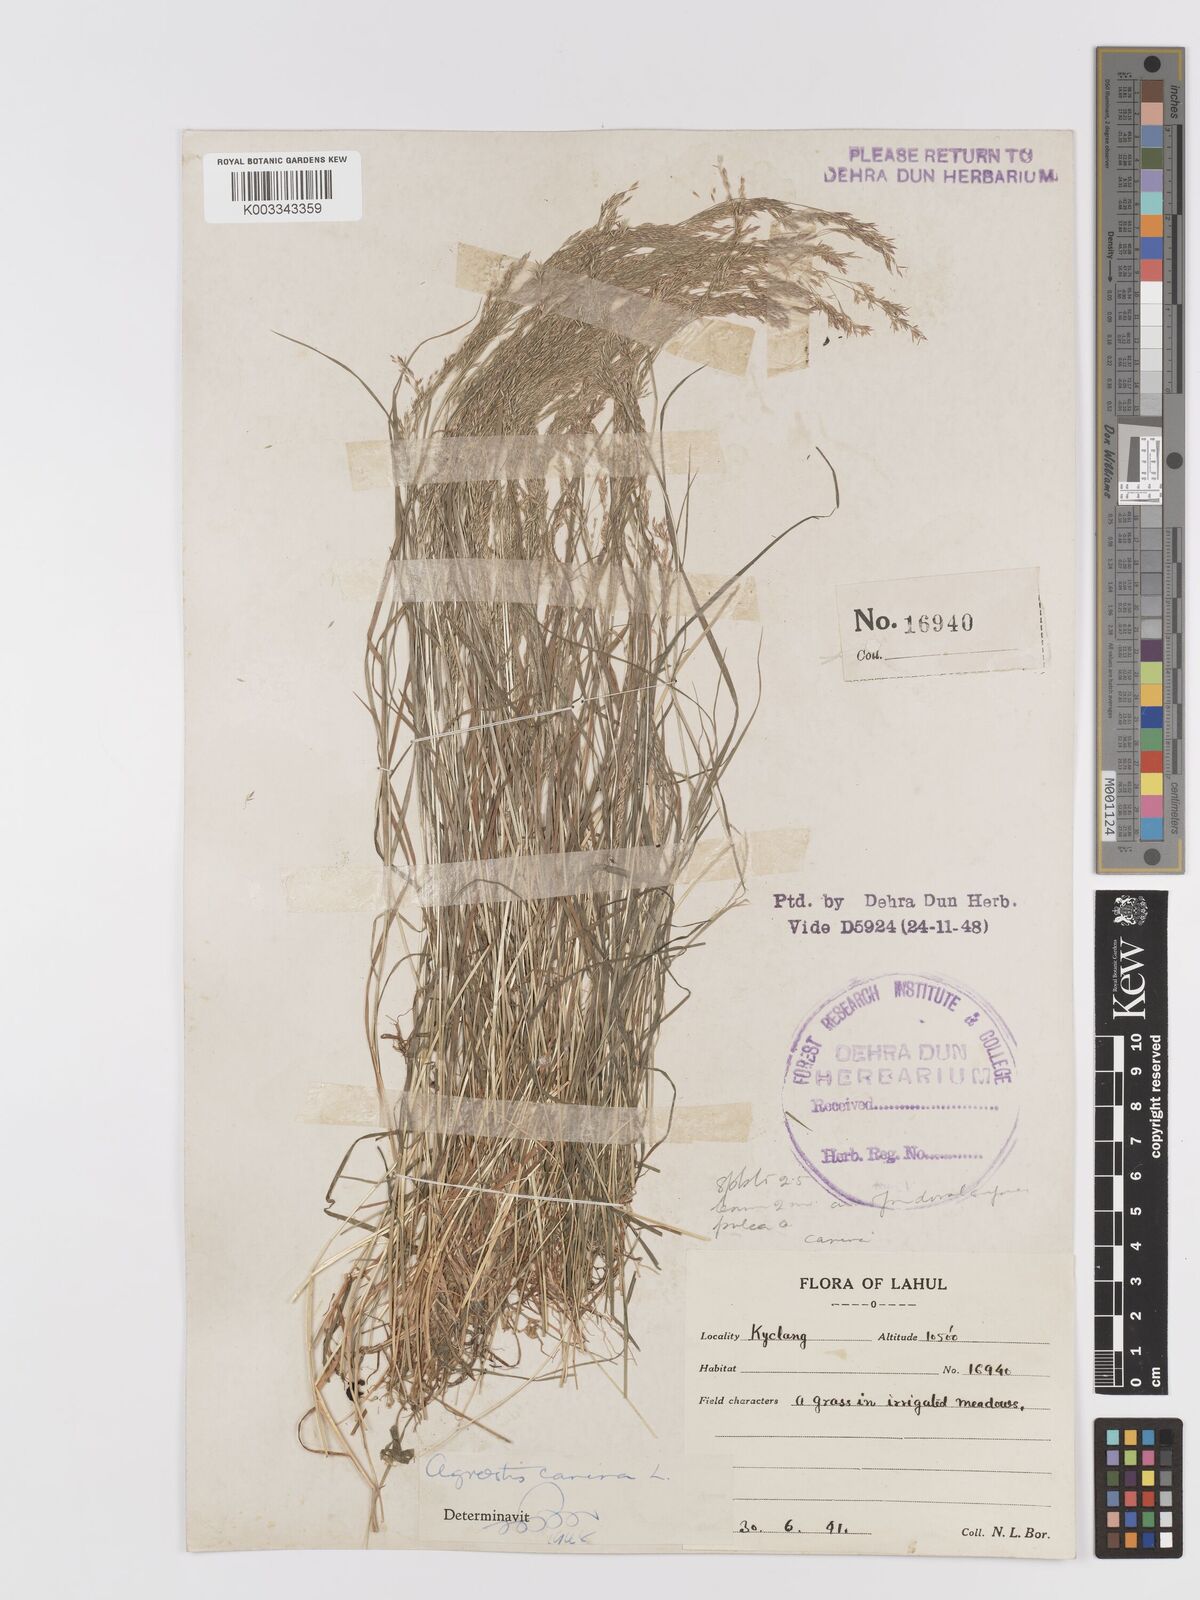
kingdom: Plantae
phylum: Tracheophyta
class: Liliopsida
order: Poales
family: Poaceae
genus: Agrostis
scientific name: Agrostis
